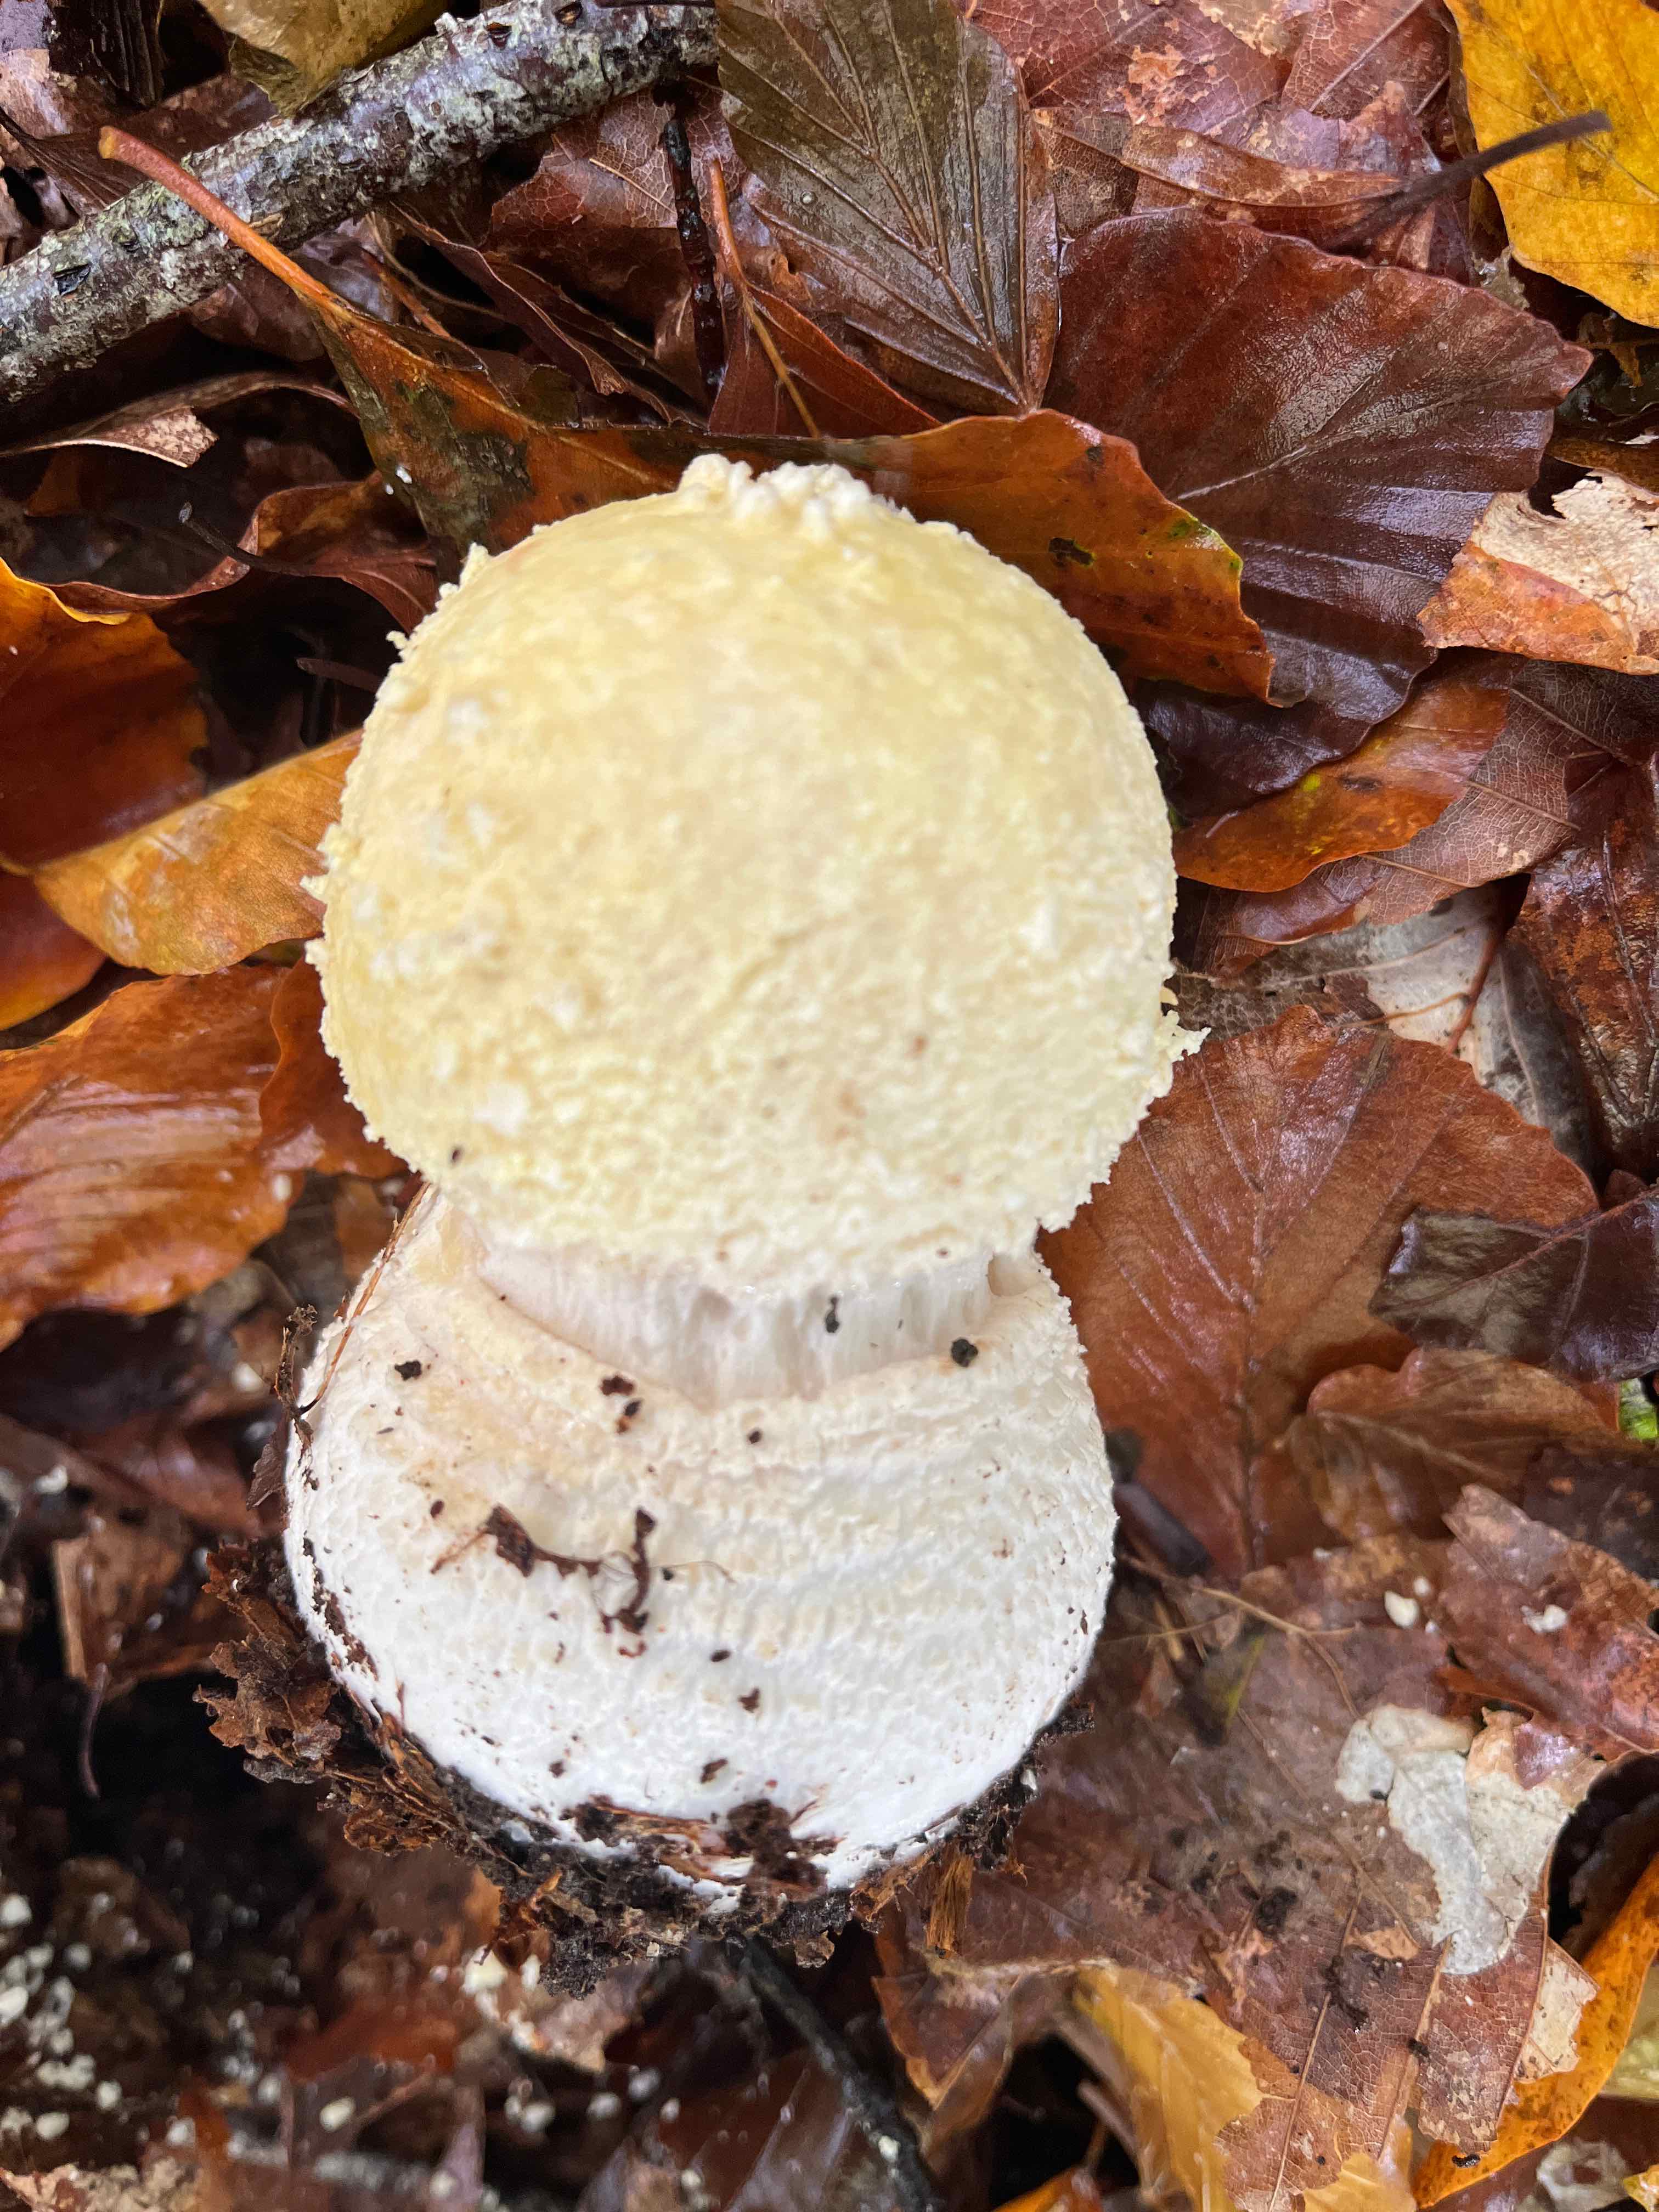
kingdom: Fungi
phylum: Basidiomycota
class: Agaricomycetes
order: Agaricales
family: Amanitaceae
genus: Amanita
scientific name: Amanita
